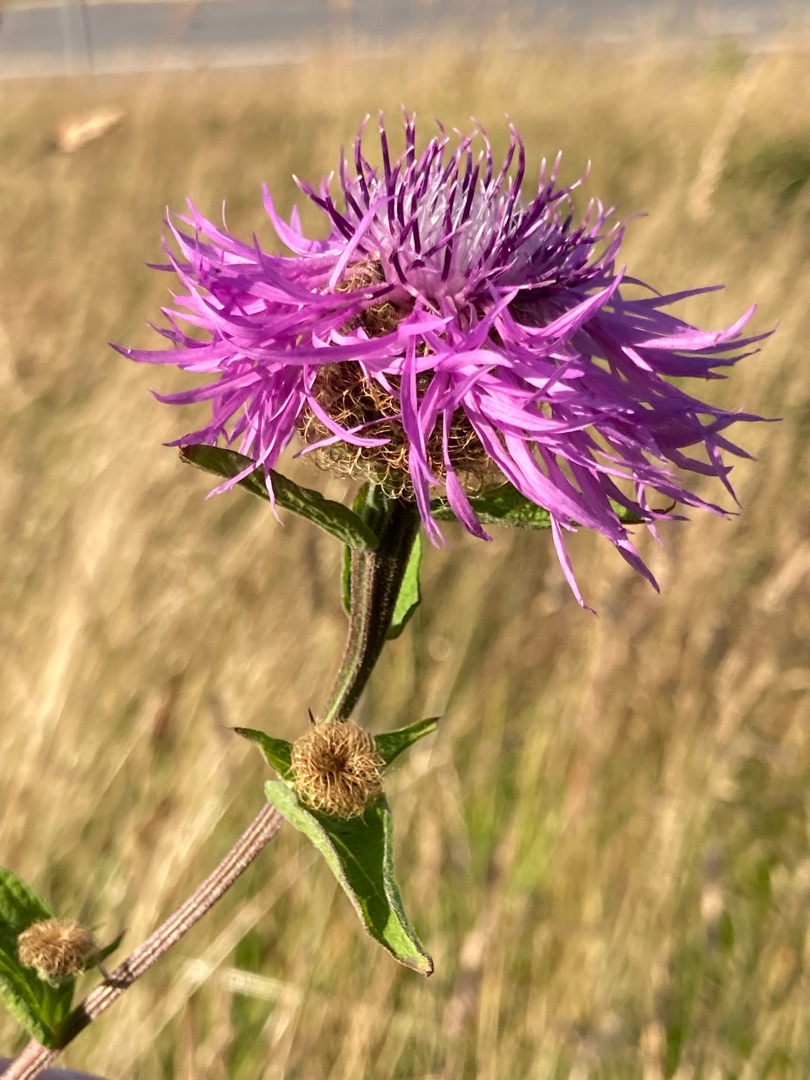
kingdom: Plantae
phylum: Tracheophyta
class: Magnoliopsida
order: Asterales
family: Asteraceae
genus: Centaurea
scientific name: Centaurea pseudophrygia
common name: Fjer-knopurt
